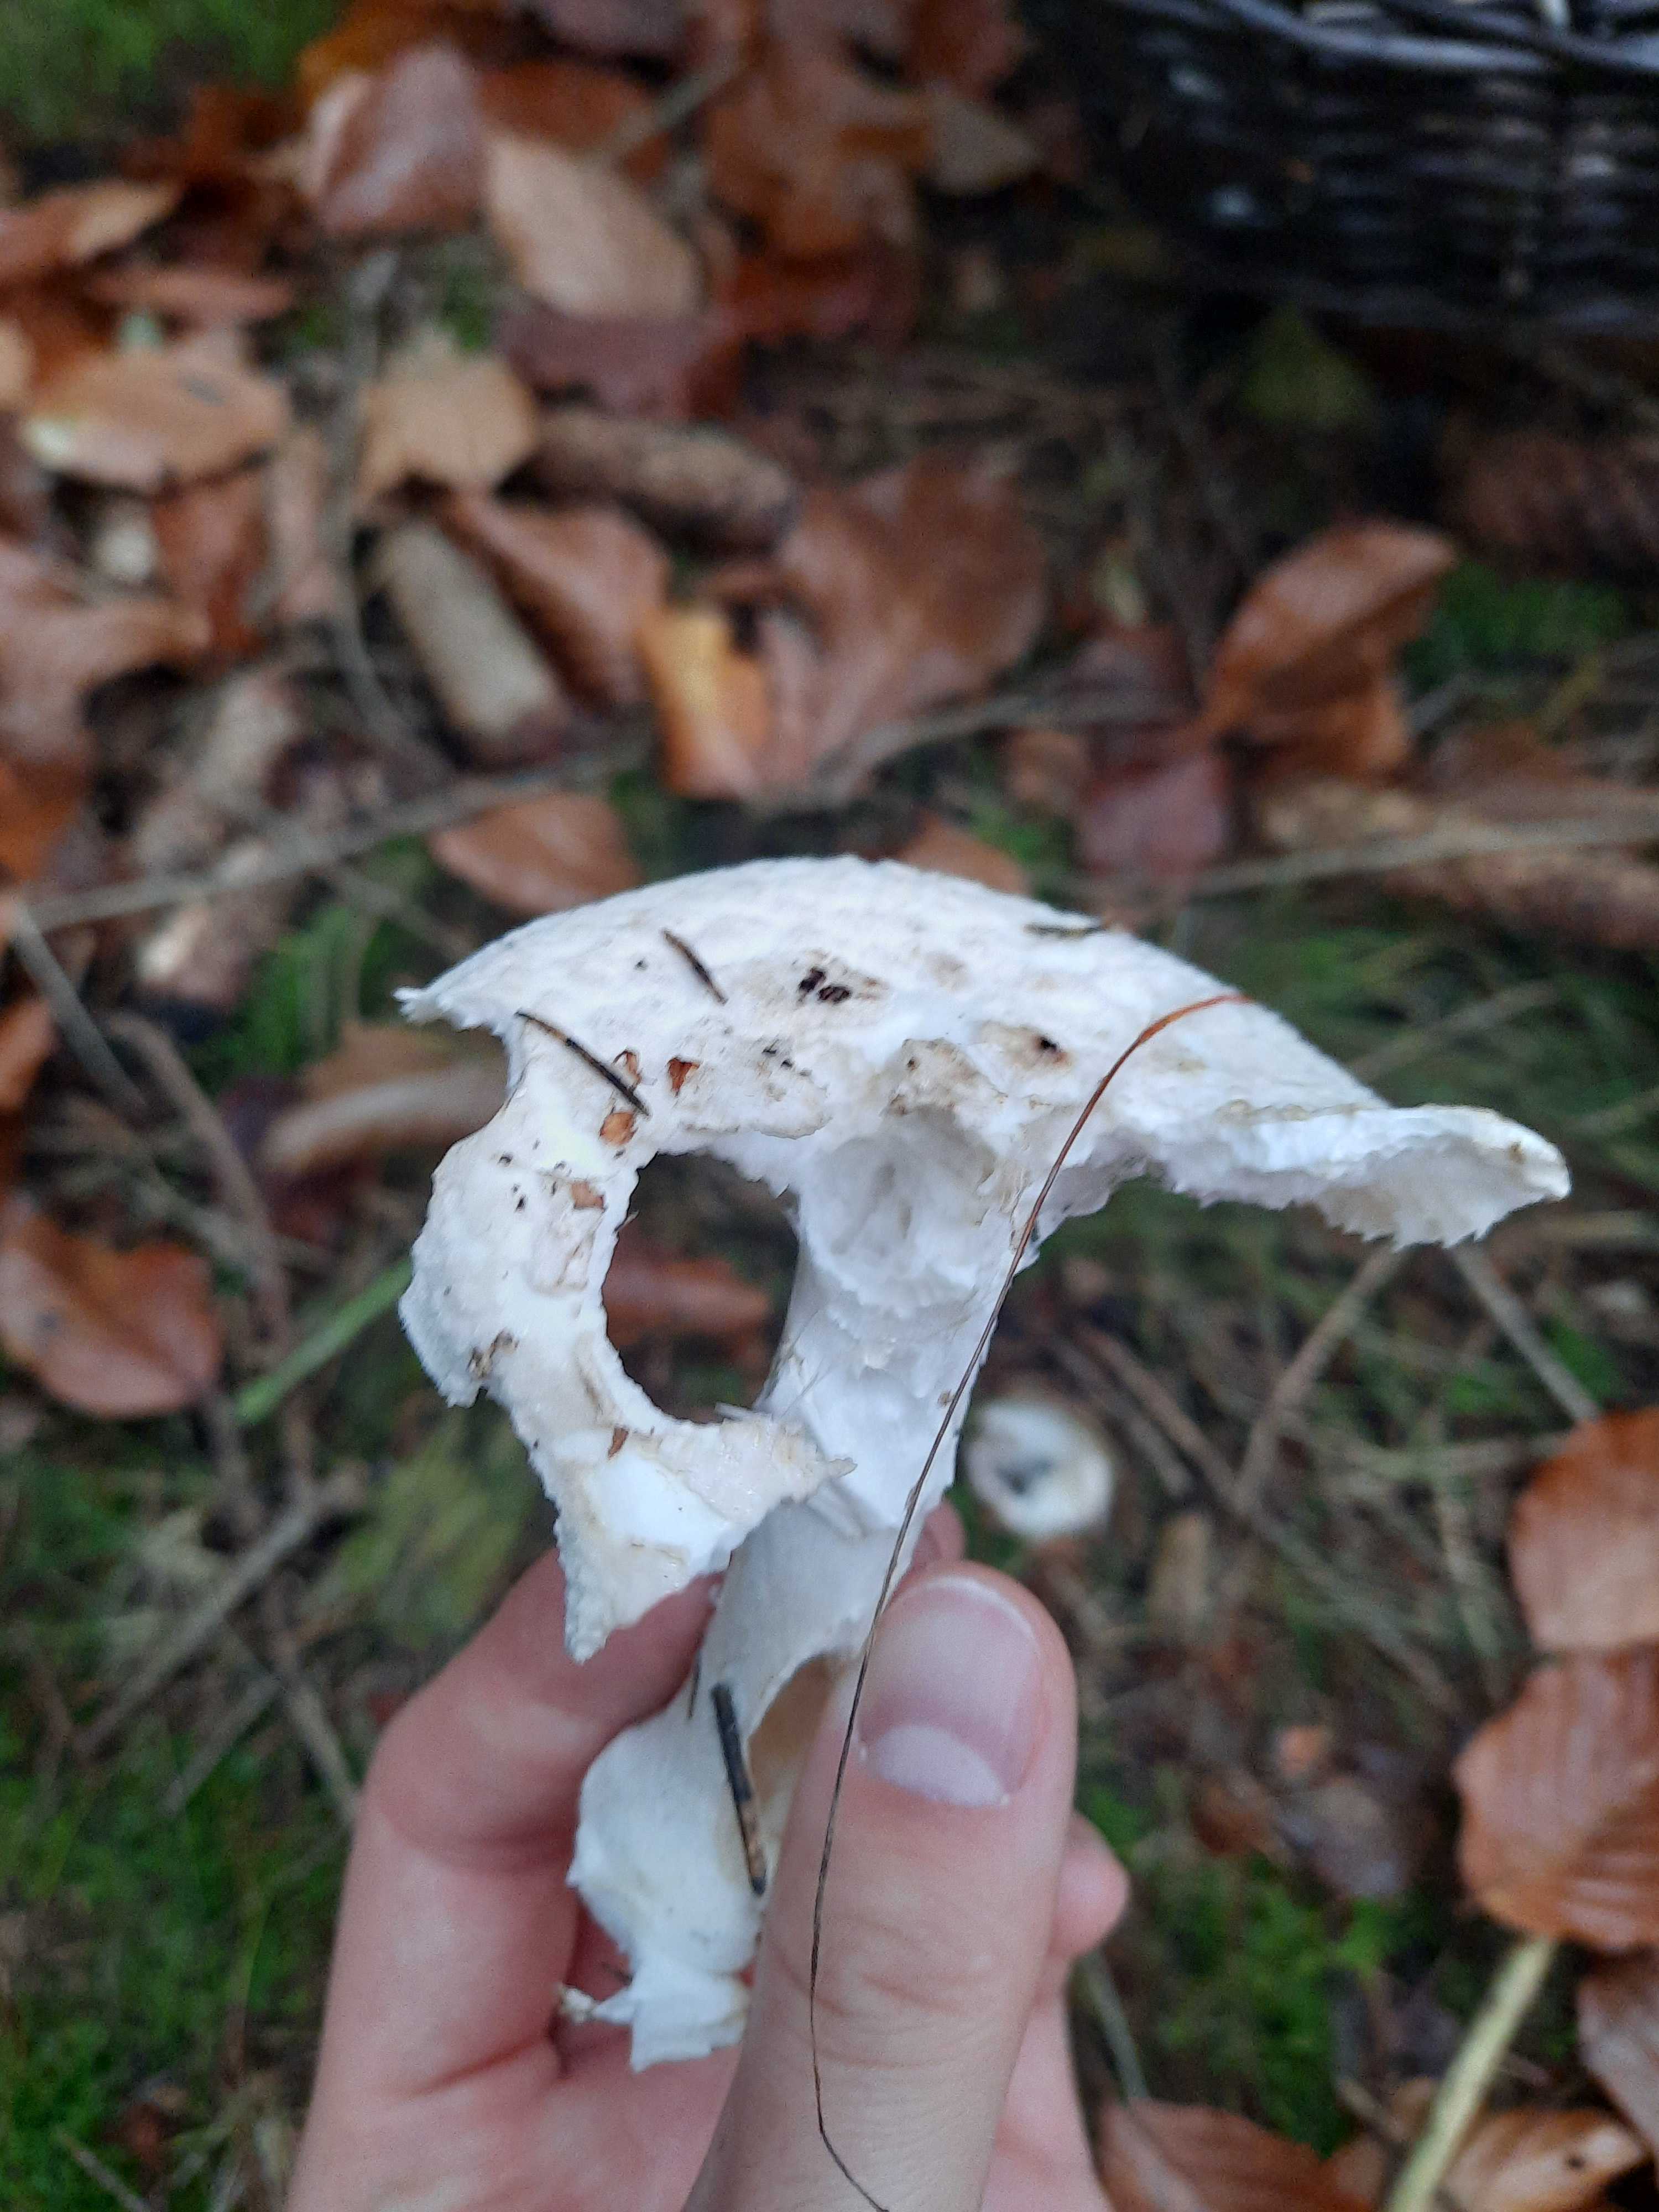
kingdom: Fungi
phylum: Basidiomycota
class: Agaricomycetes
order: Agaricales
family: Amanitaceae
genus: Amanita
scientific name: Amanita citrina
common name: False death-cap
